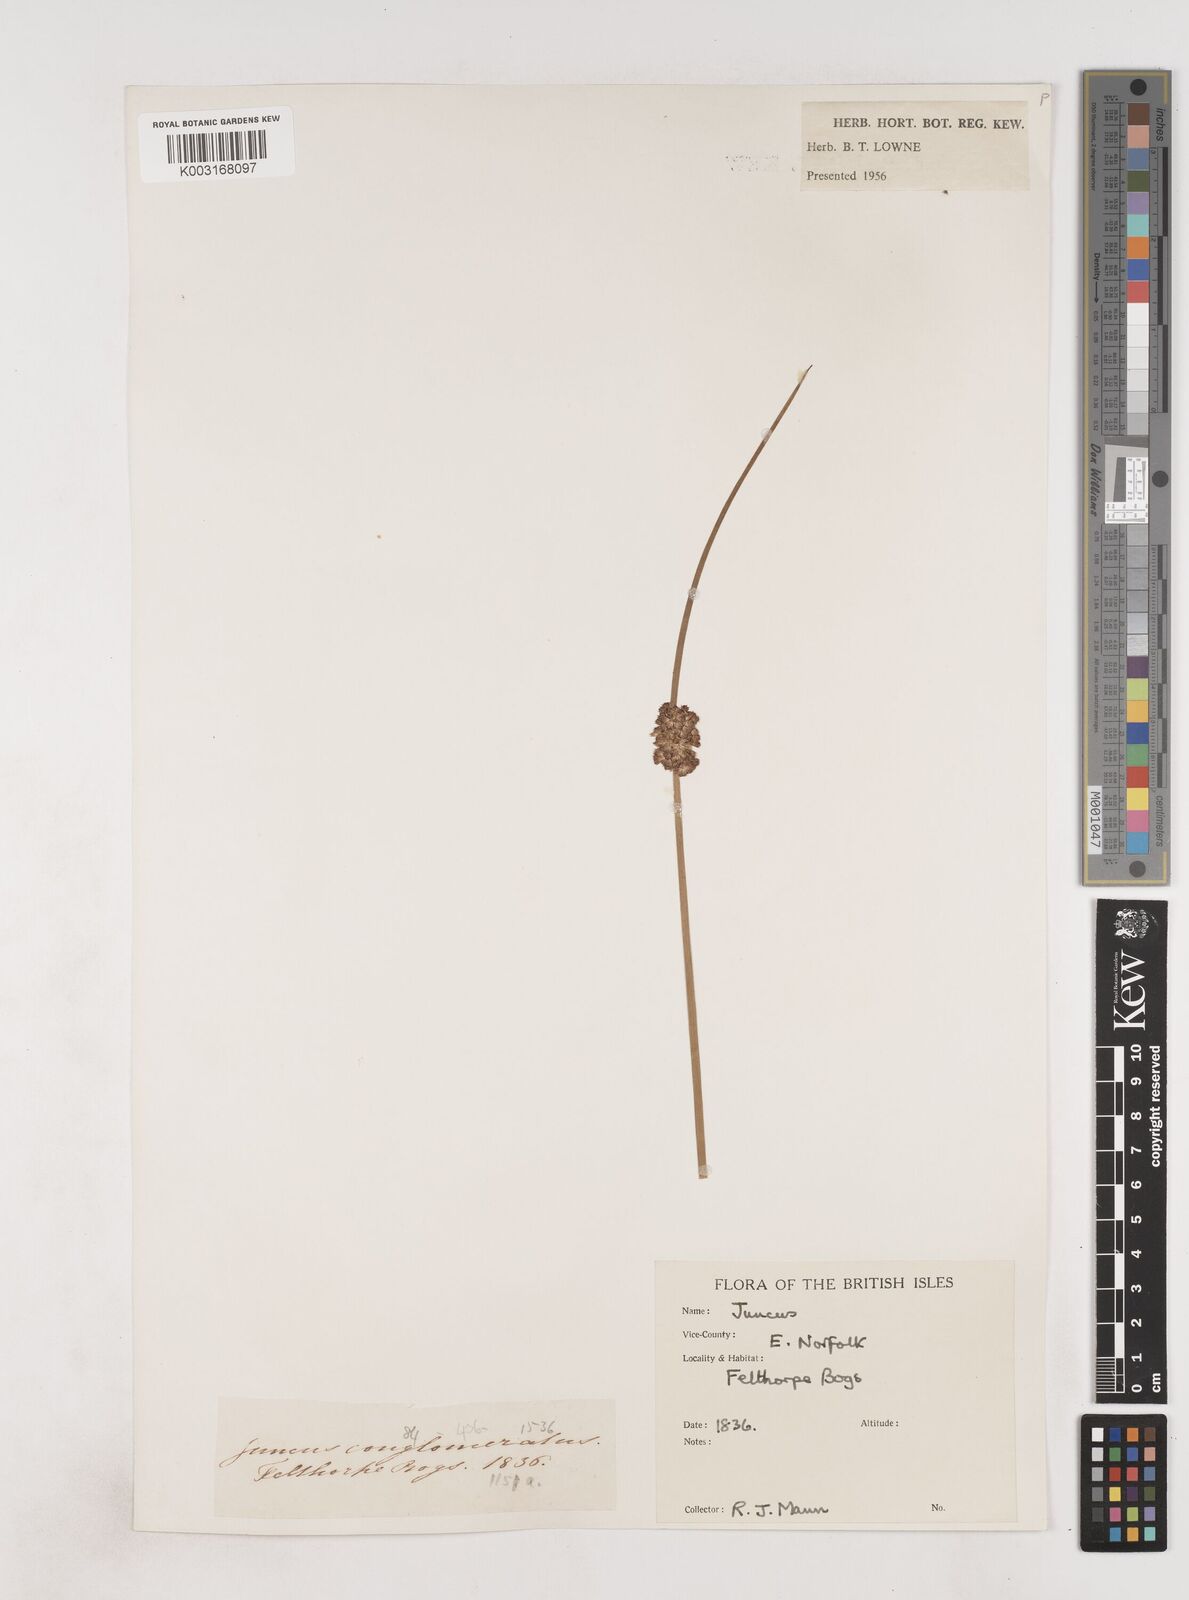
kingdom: Plantae
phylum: Tracheophyta
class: Liliopsida
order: Poales
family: Juncaceae
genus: Juncus
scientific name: Juncus conglomeratus
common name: Compact rush
